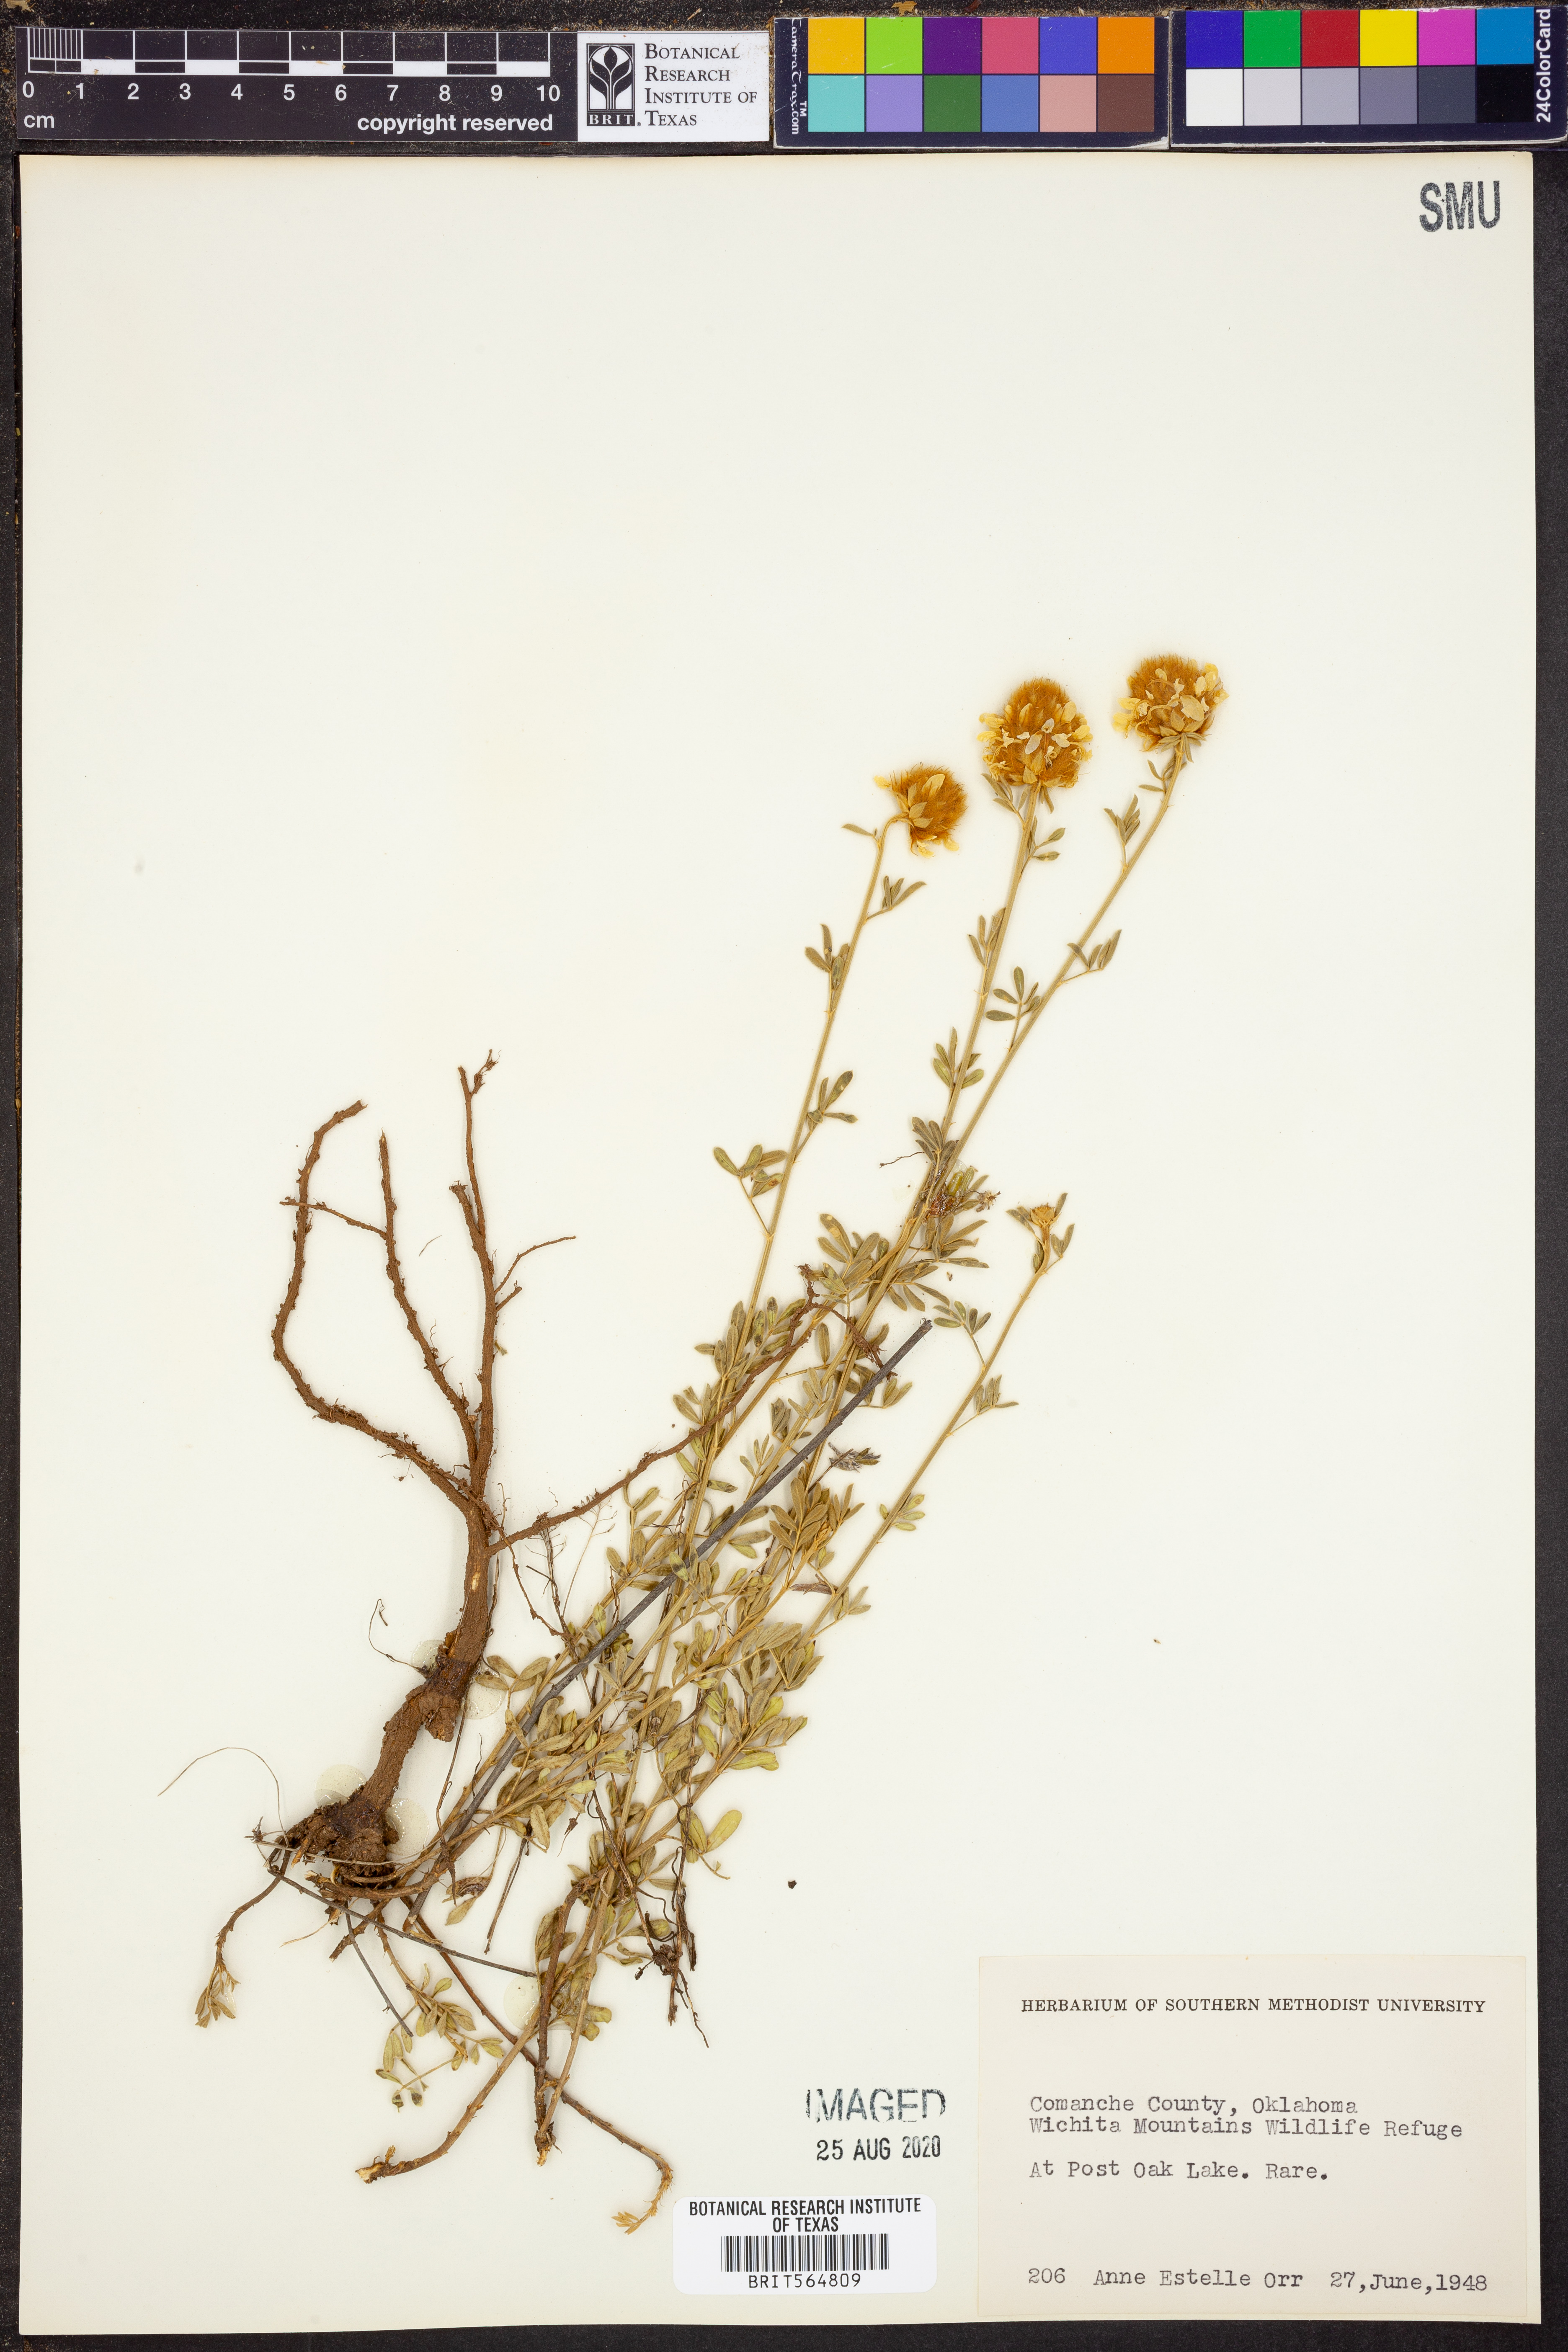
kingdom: Plantae
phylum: Tracheophyta
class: Magnoliopsida
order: Fabales
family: Fabaceae
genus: Dalea
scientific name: Dalea
